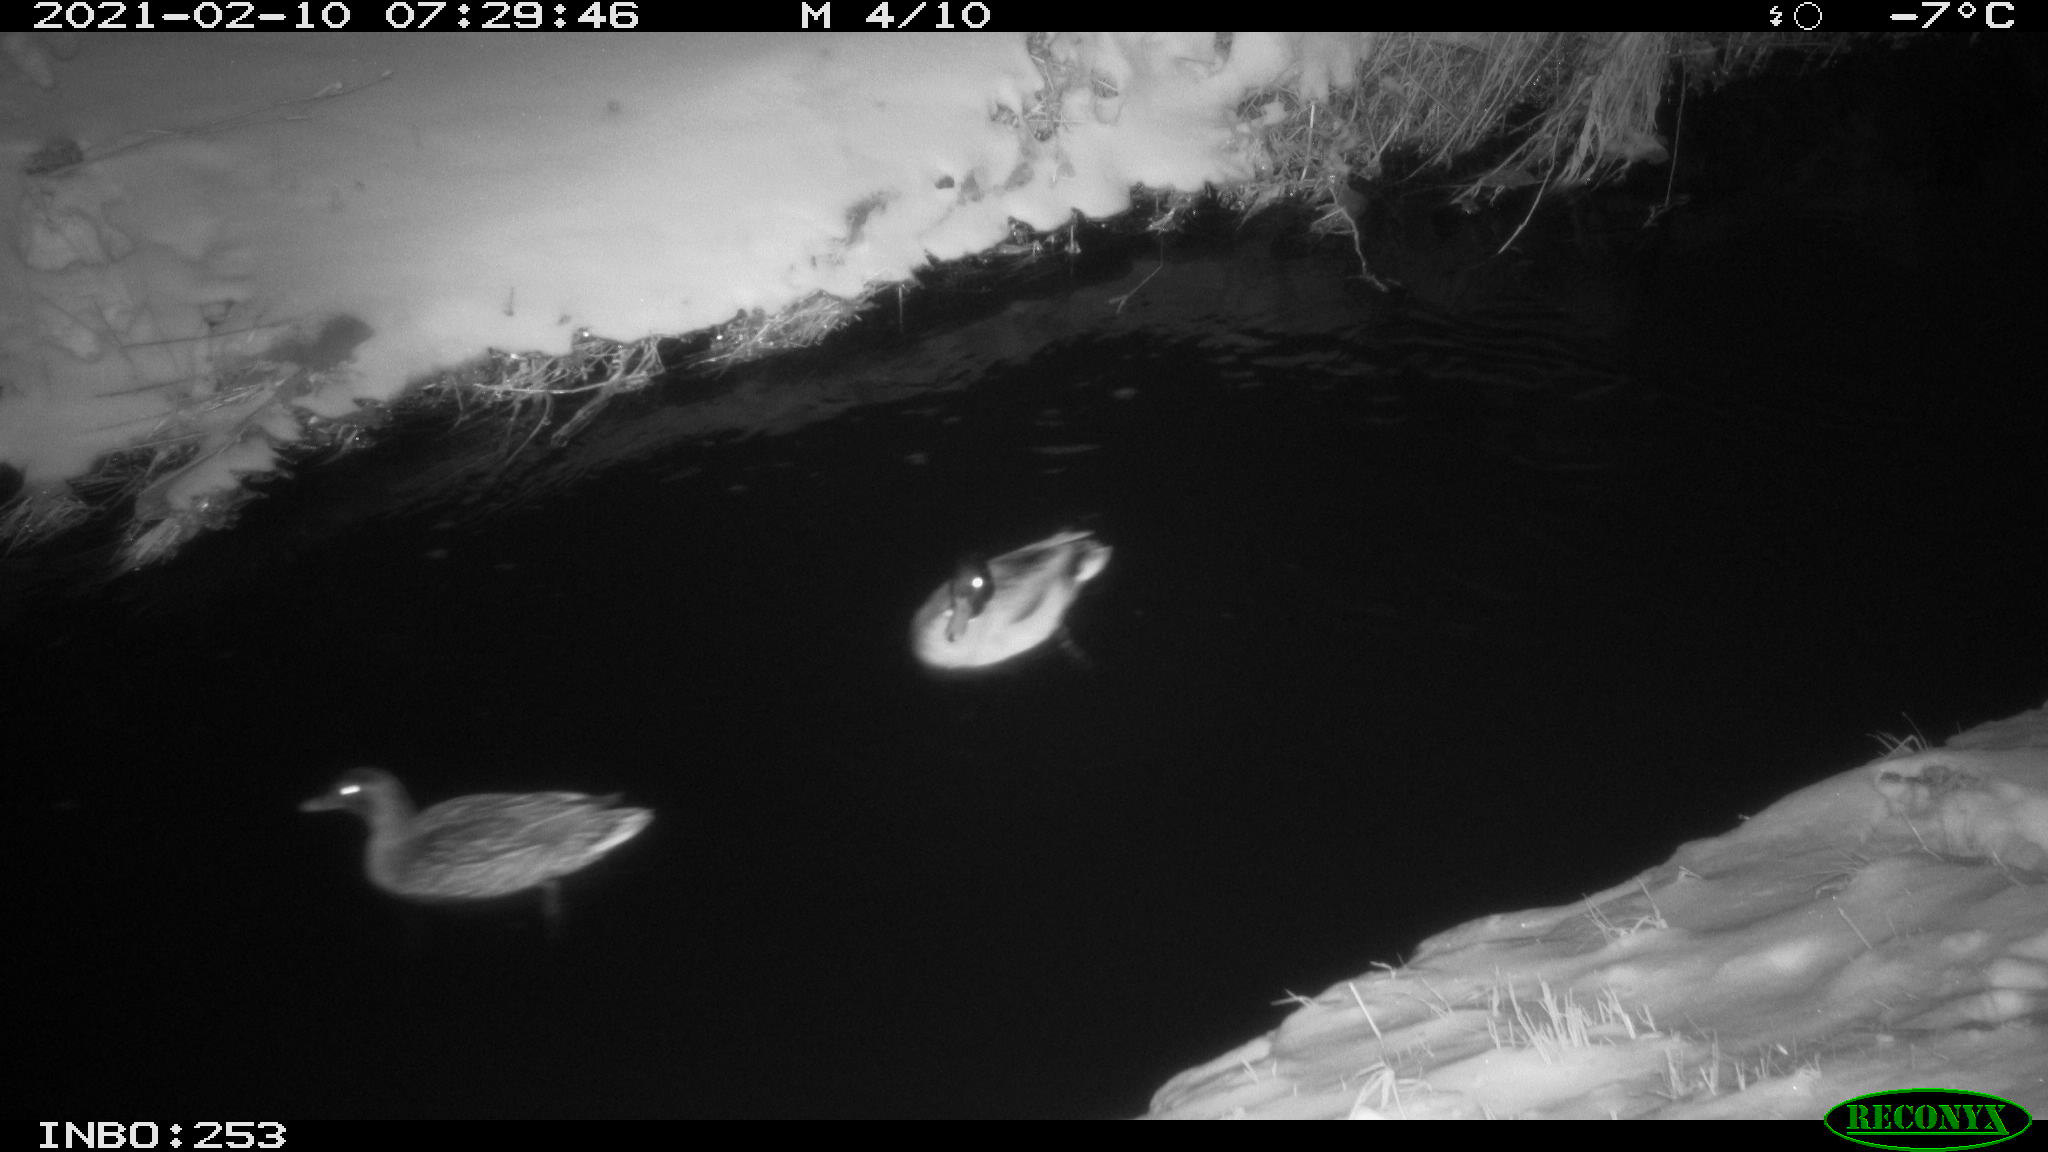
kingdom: Animalia
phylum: Chordata
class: Aves
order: Anseriformes
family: Anatidae
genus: Anas
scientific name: Anas platyrhynchos
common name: Mallard
